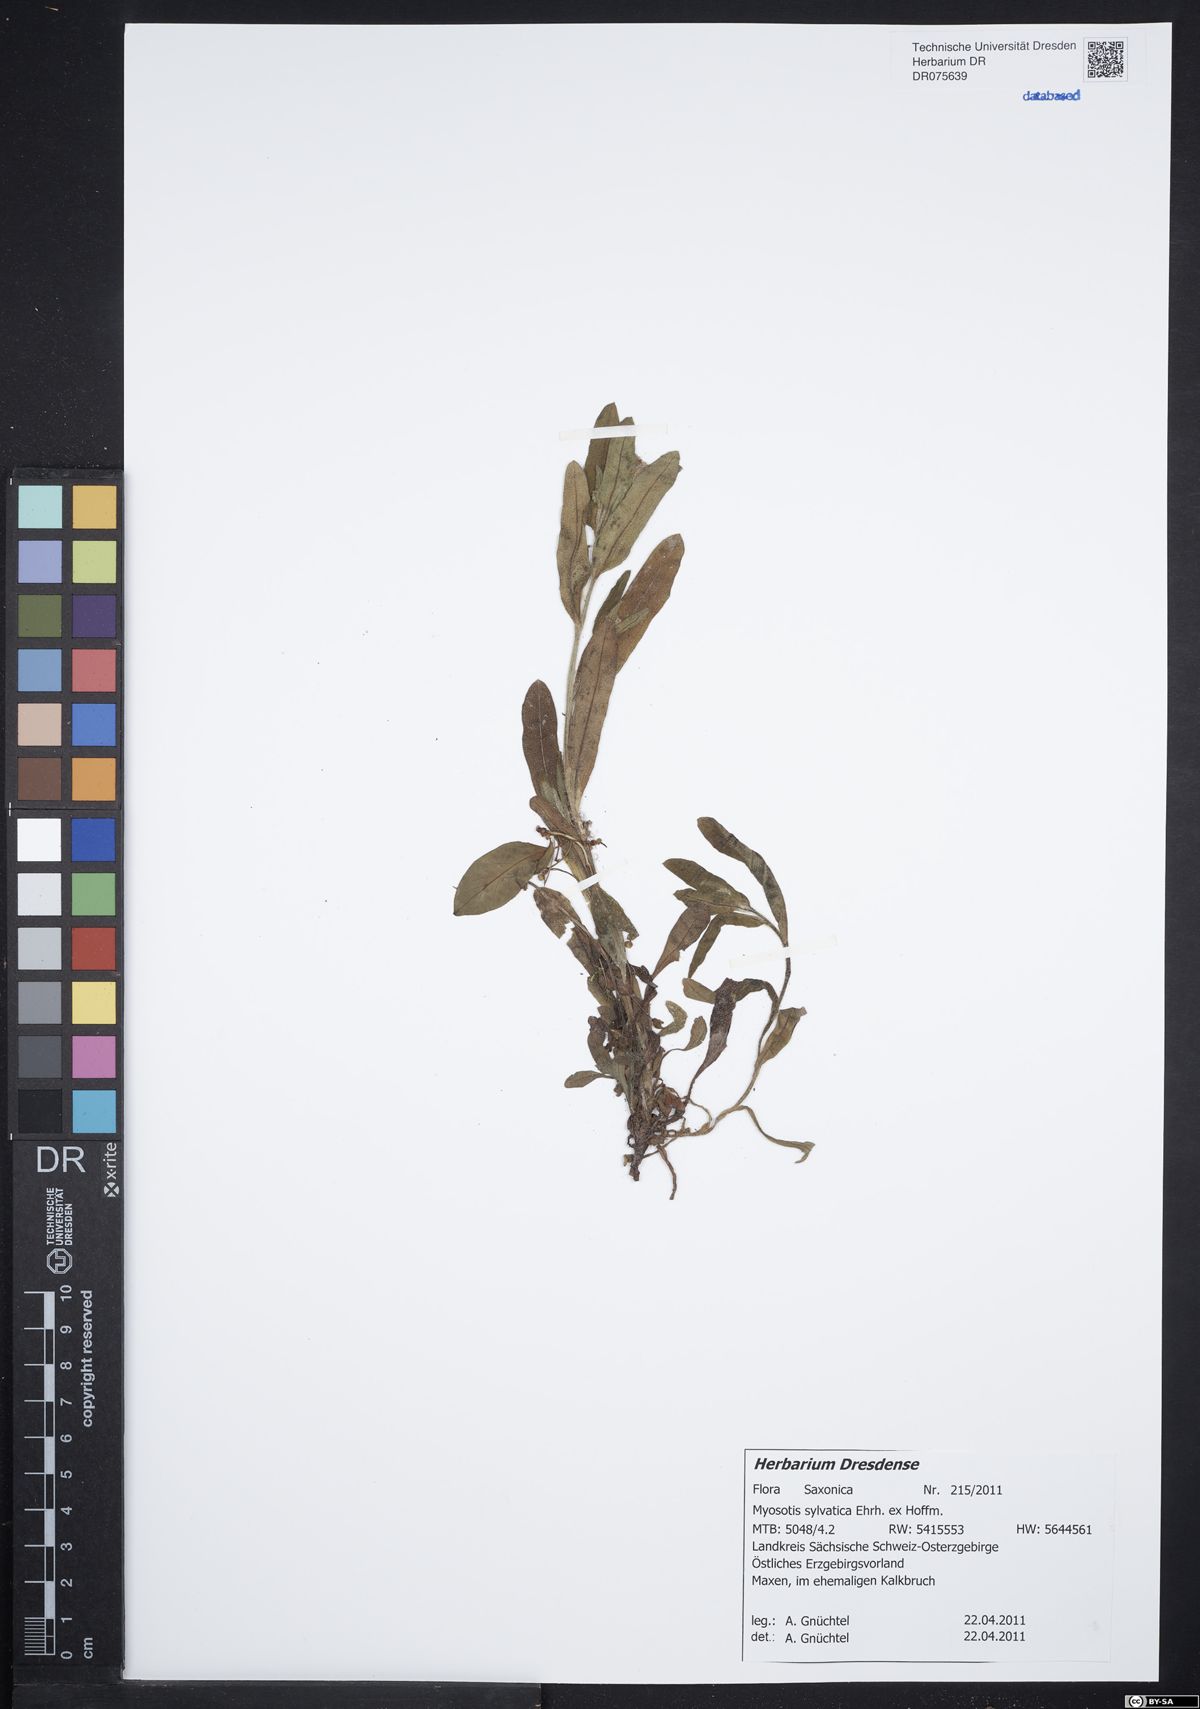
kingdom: Plantae
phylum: Tracheophyta
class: Magnoliopsida
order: Boraginales
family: Boraginaceae
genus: Myosotis
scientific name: Myosotis sylvatica
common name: Wood forget-me-not
